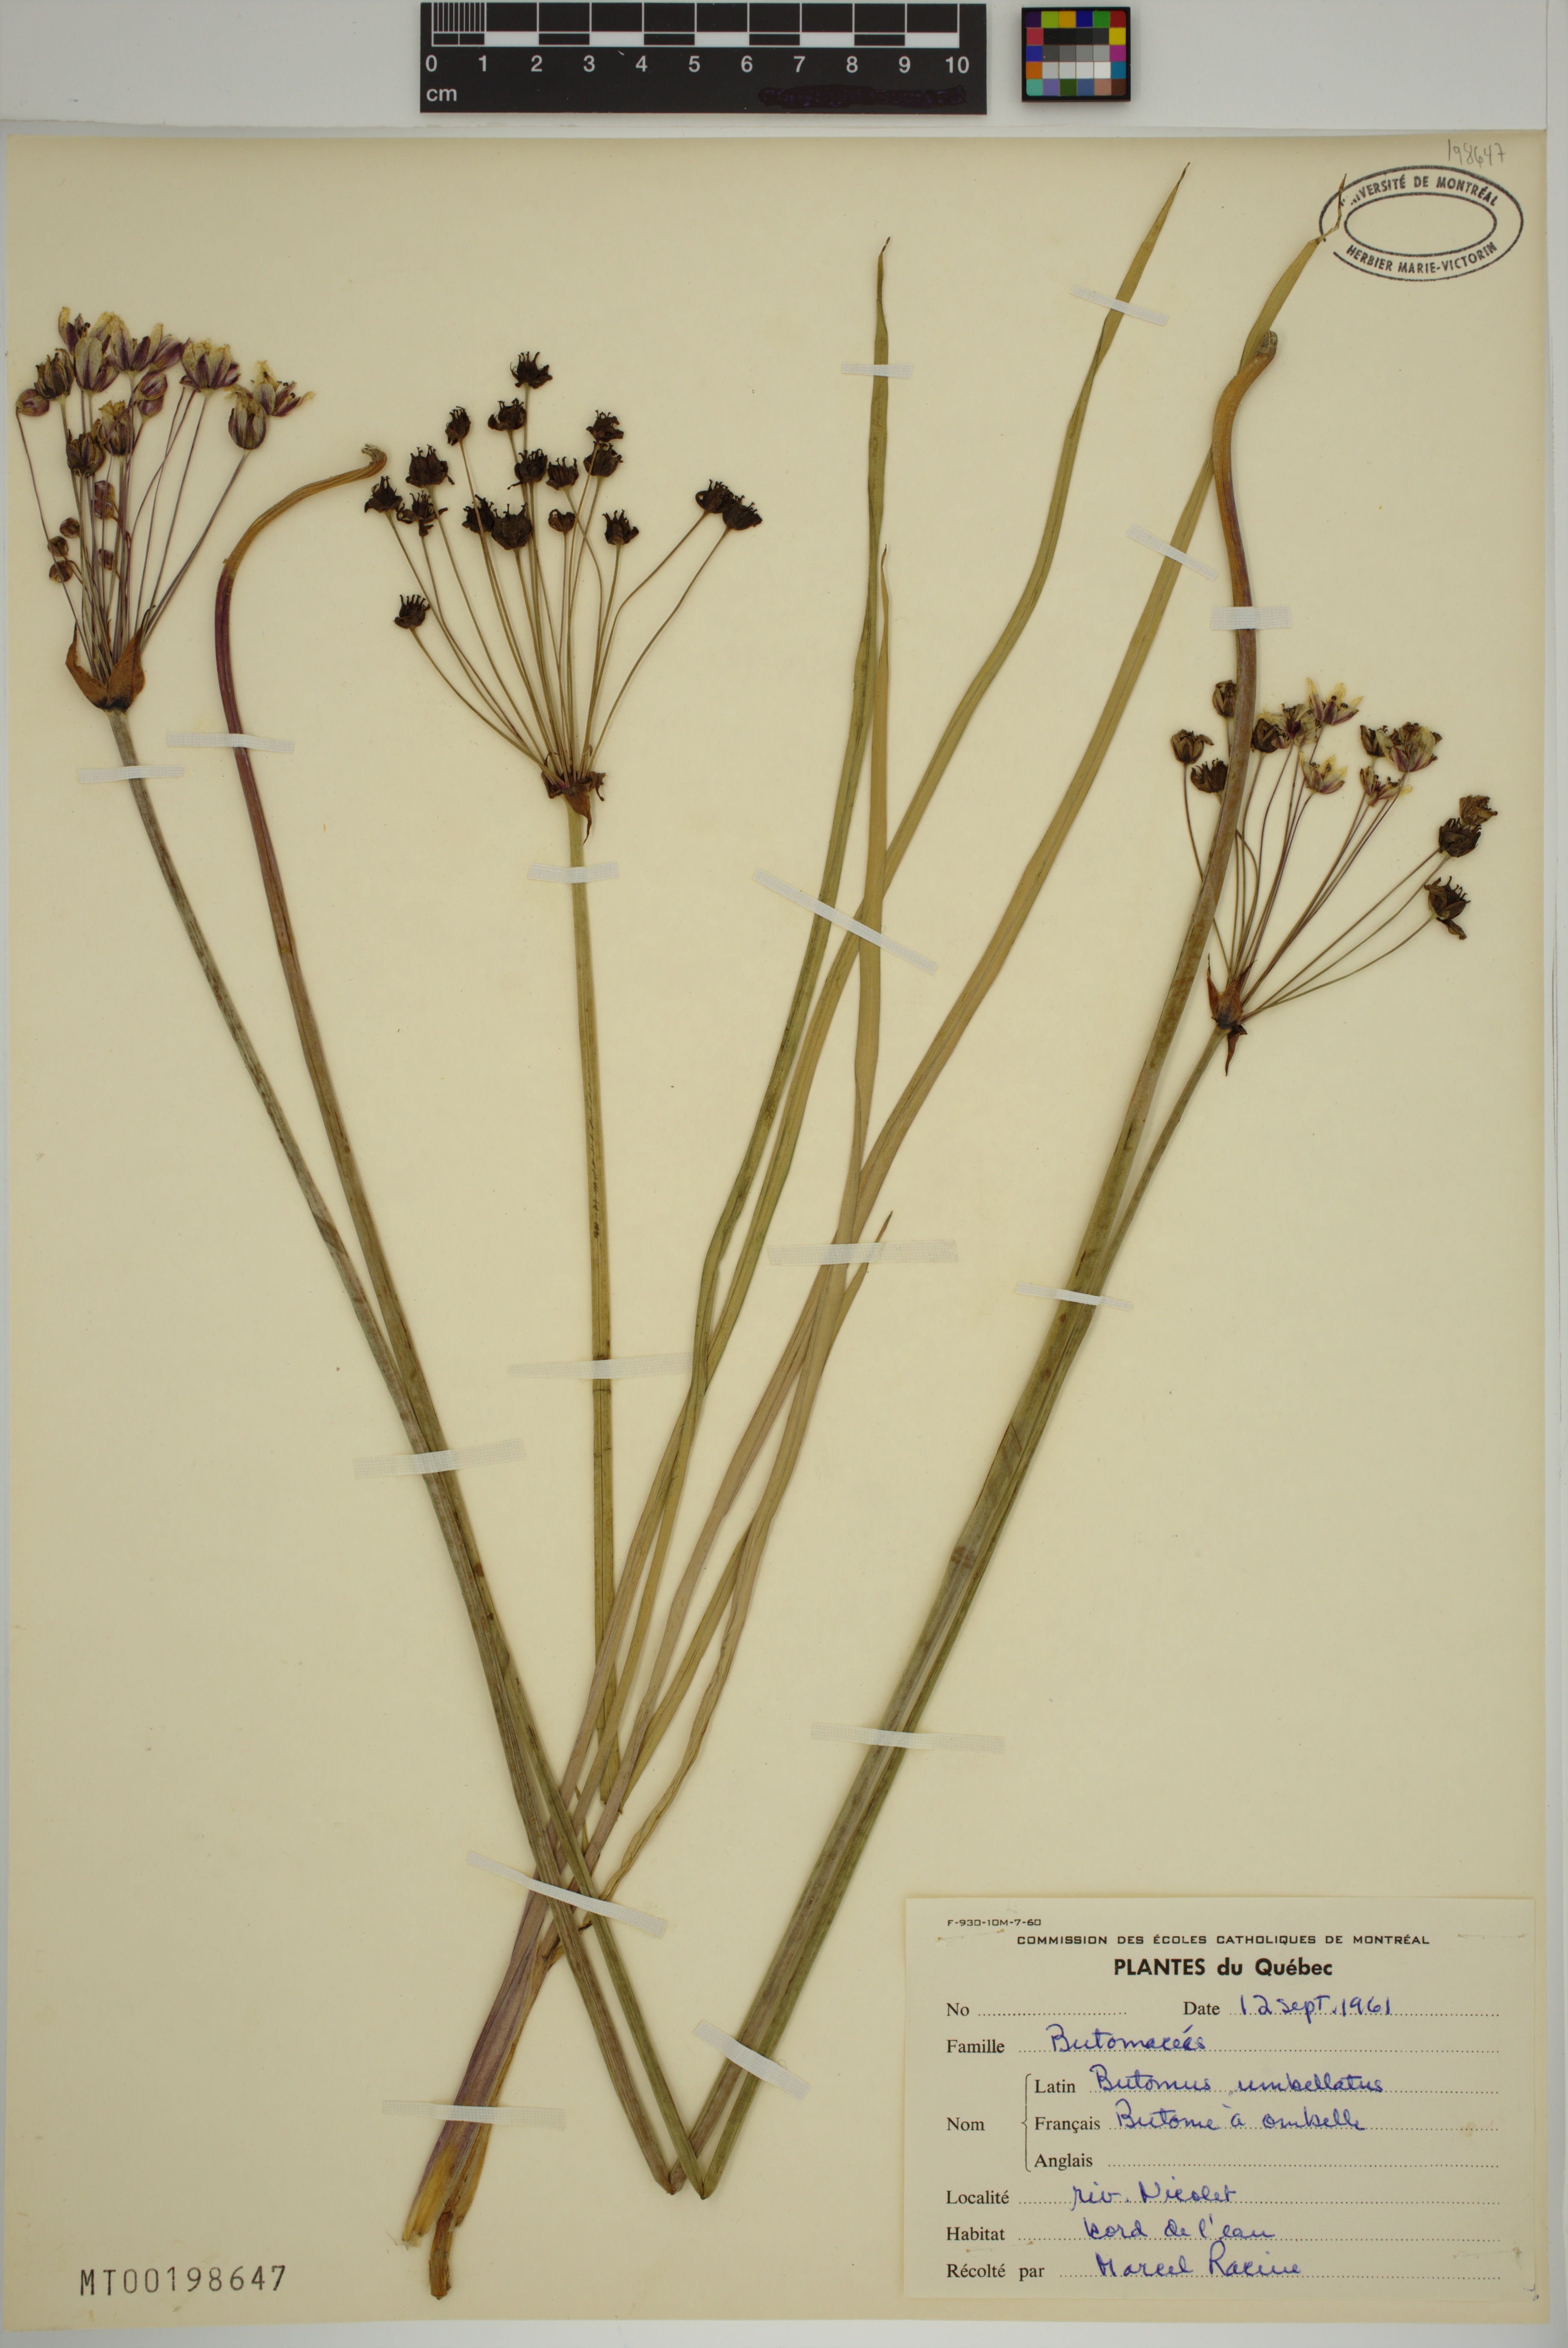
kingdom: Plantae
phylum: Tracheophyta
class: Liliopsida
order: Alismatales
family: Butomaceae
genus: Butomus
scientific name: Butomus umbellatus
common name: Flowering-rush
